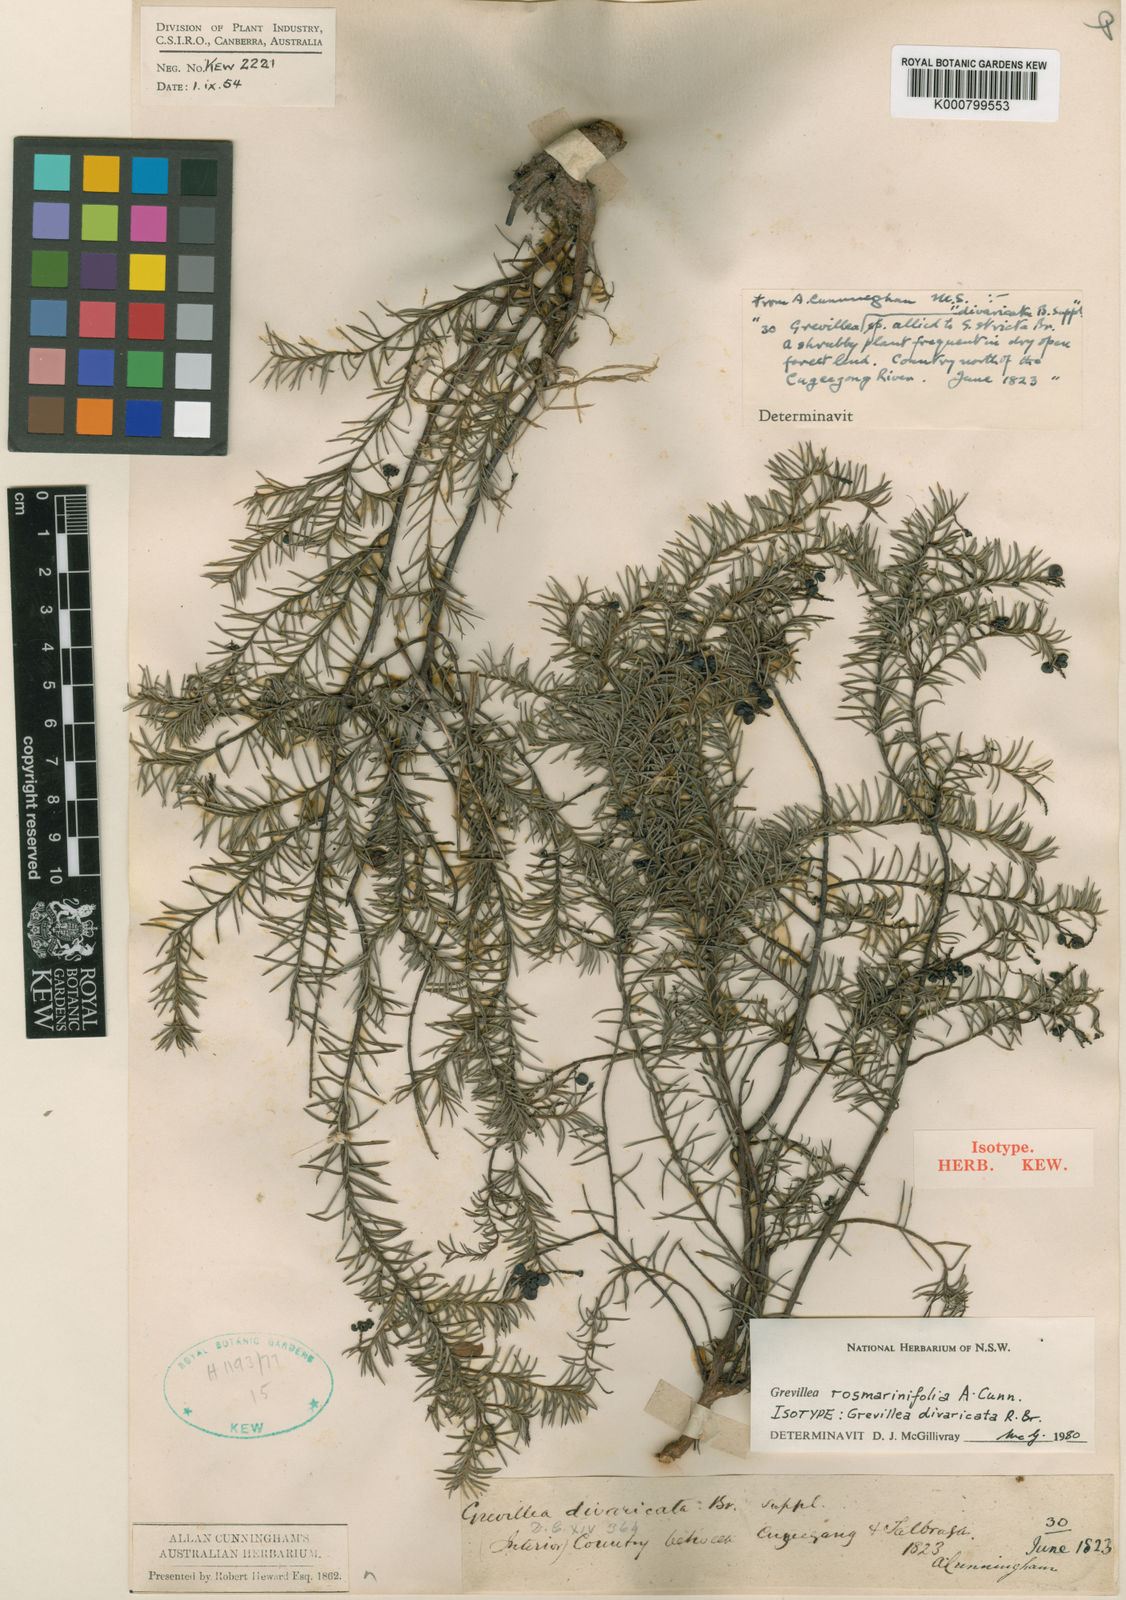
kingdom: Plantae
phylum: Tracheophyta
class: Magnoliopsida
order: Proteales
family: Proteaceae
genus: Grevillea
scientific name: Grevillea divaricata
